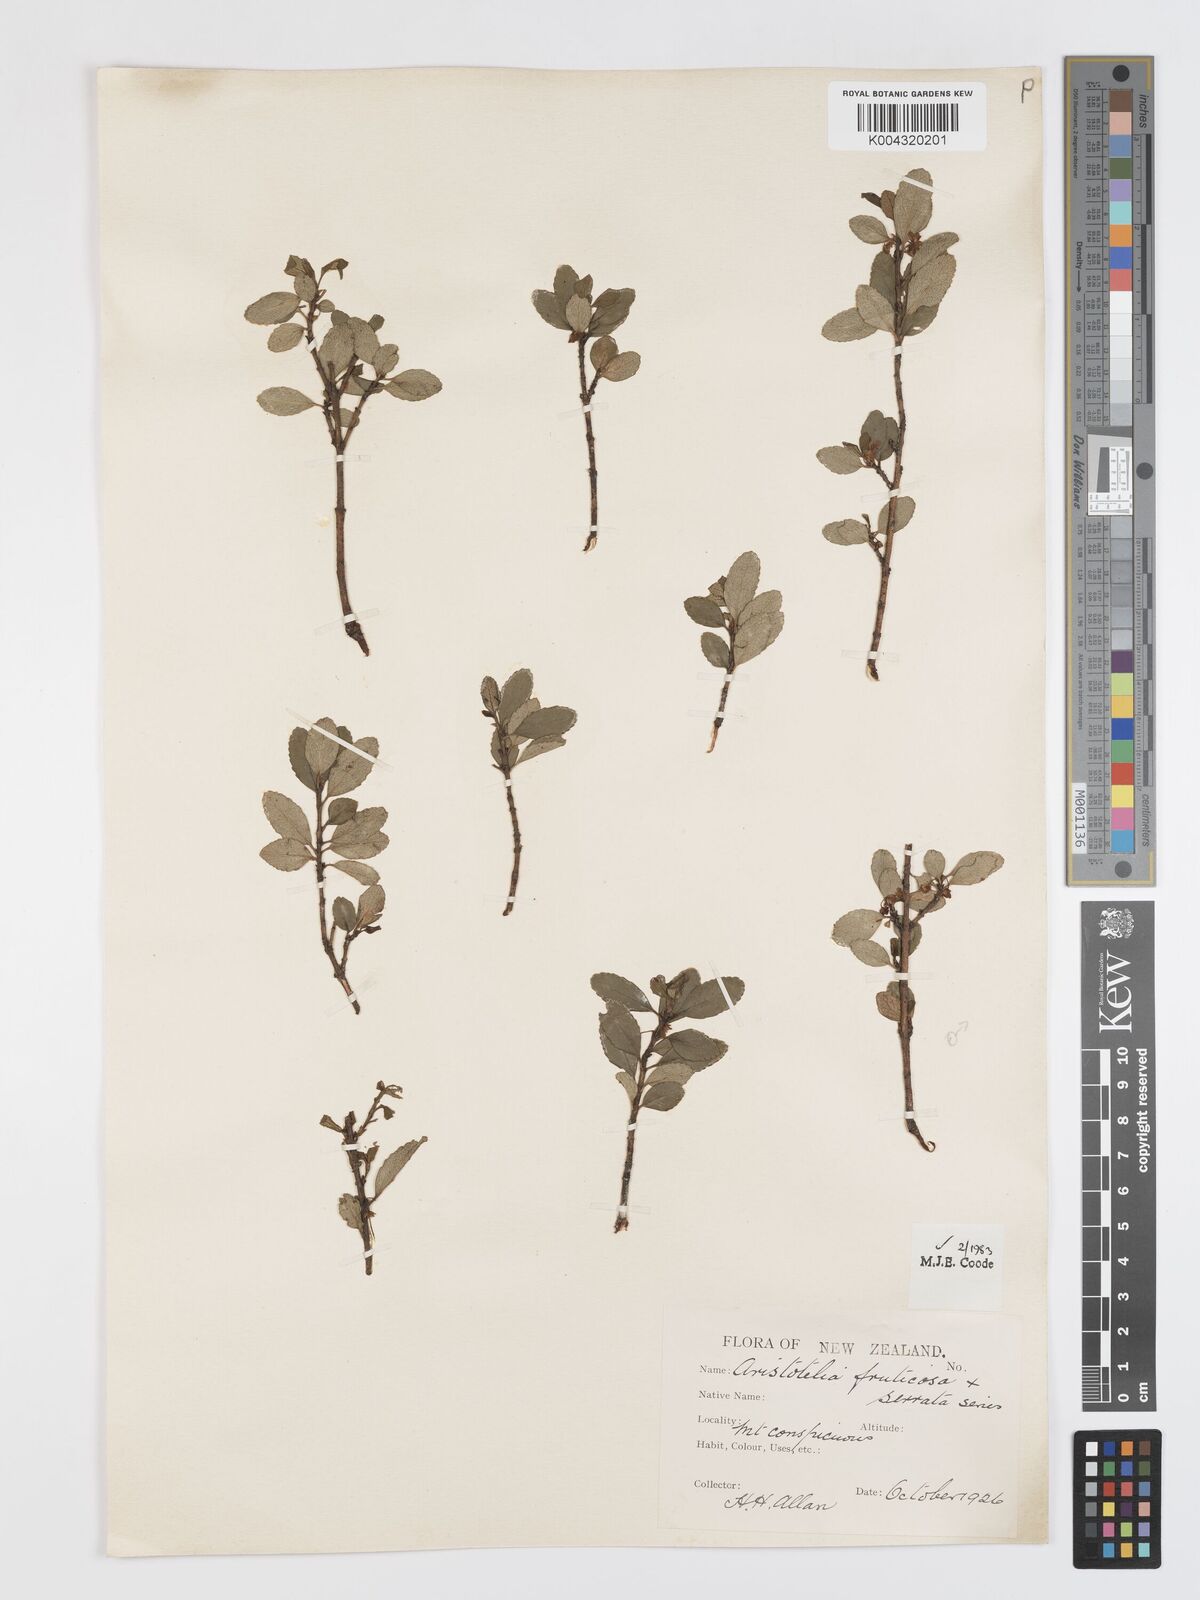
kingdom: Plantae
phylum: Tracheophyta
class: Magnoliopsida
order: Oxalidales
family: Elaeocarpaceae
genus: Aristotelia
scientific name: Aristotelia fruticosa
